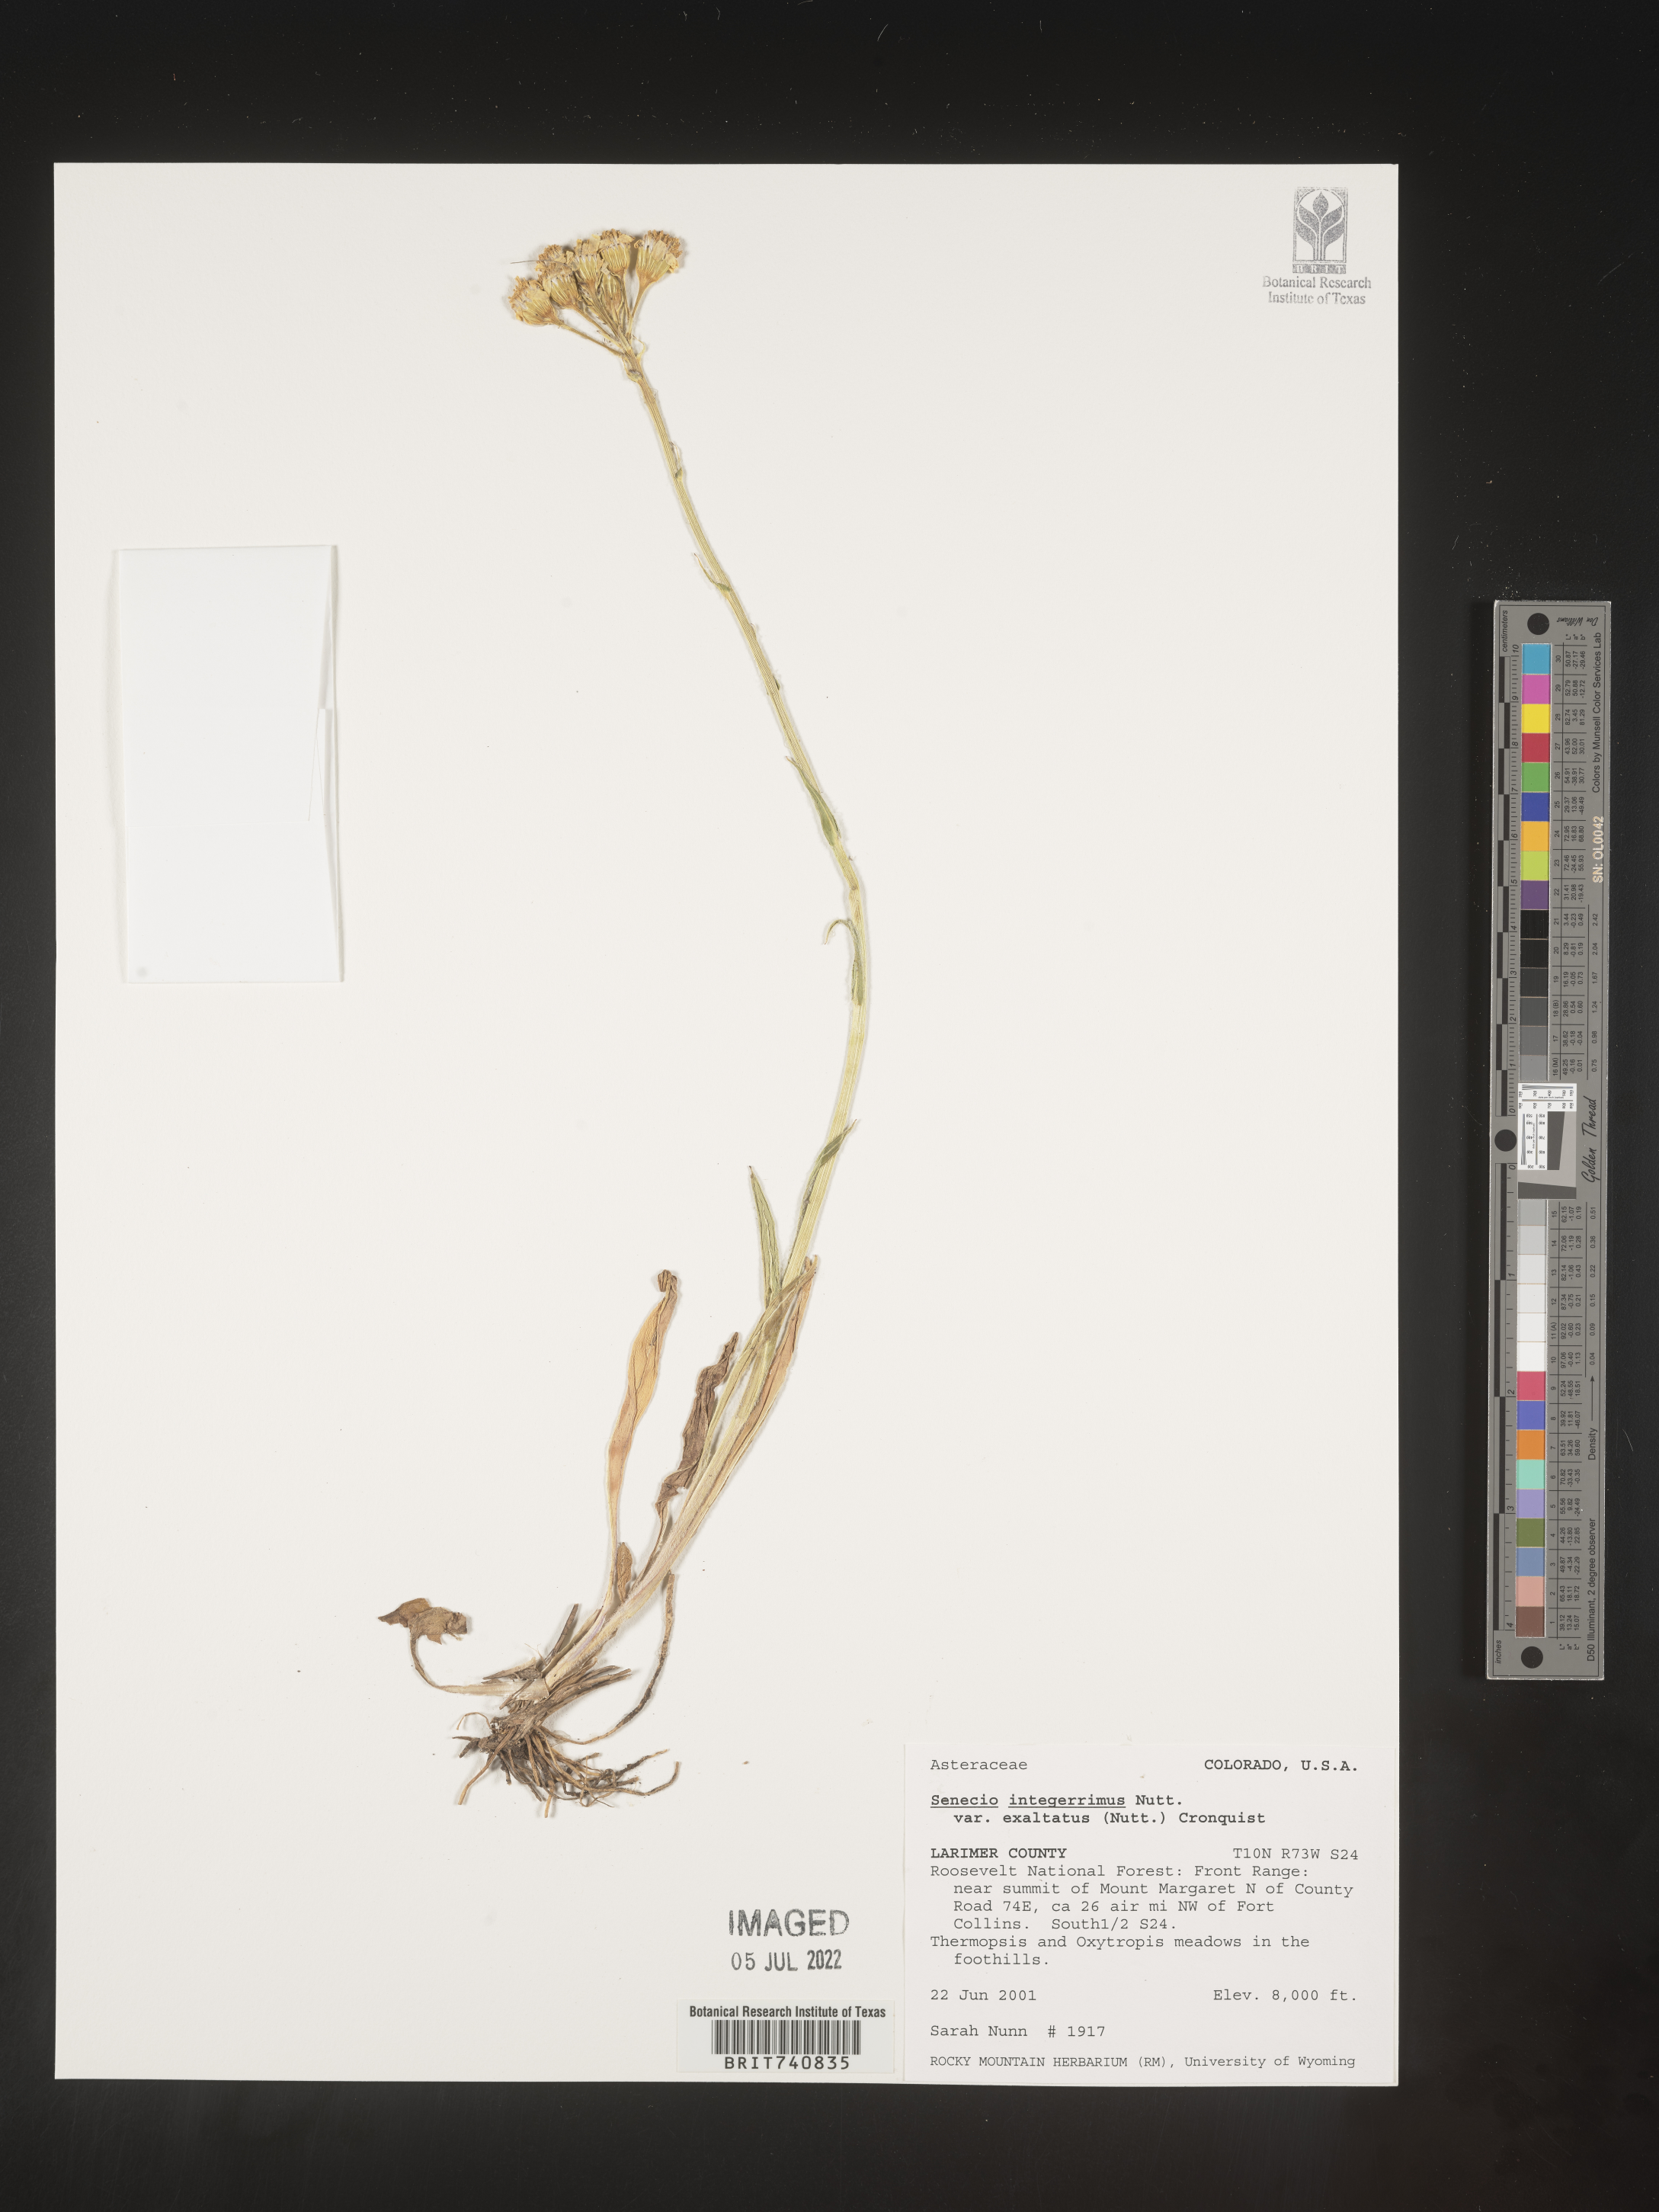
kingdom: Plantae
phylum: Tracheophyta
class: Magnoliopsida
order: Asterales
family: Asteraceae
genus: Senecio
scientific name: Senecio integerrimus
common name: Gaugeplant
